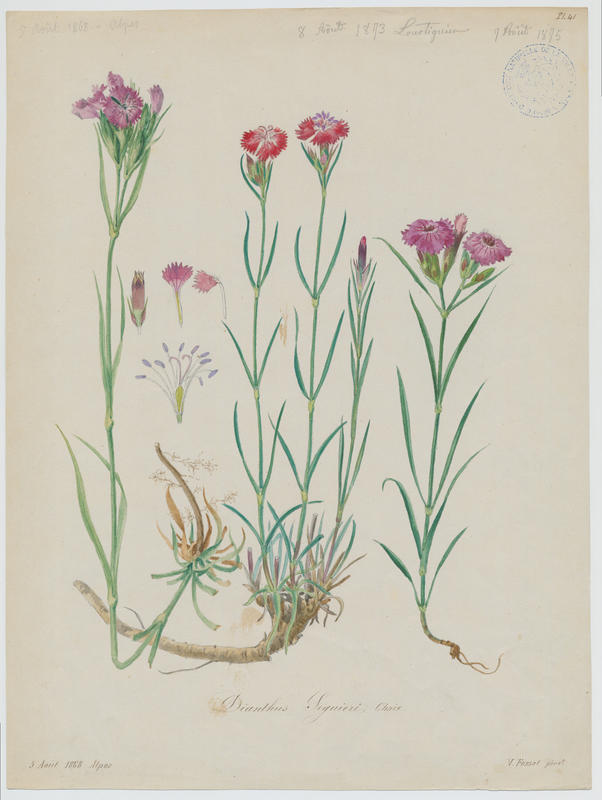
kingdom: Plantae
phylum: Tracheophyta
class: Magnoliopsida
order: Caryophyllales
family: Caryophyllaceae
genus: Dianthus
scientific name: Dianthus seguieri
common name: Ragged pink
